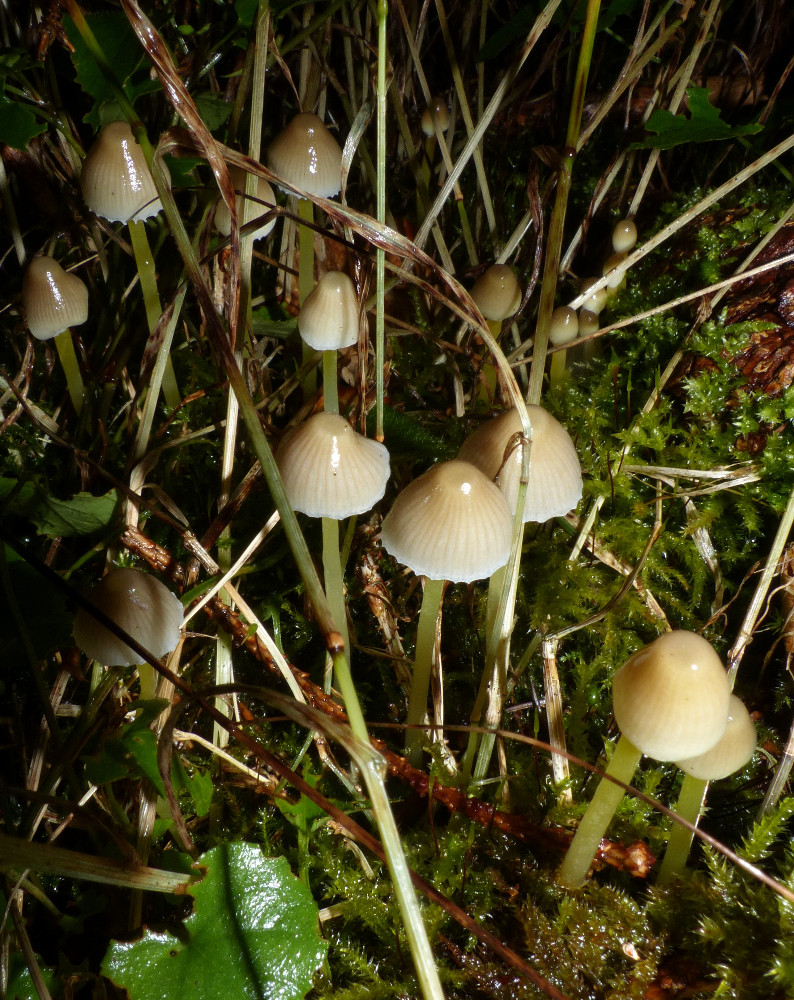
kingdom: Fungi
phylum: Basidiomycota
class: Agaricomycetes
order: Agaricales
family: Mycenaceae
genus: Mycena
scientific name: Mycena epipterygia
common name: gulstokket huesvamp
